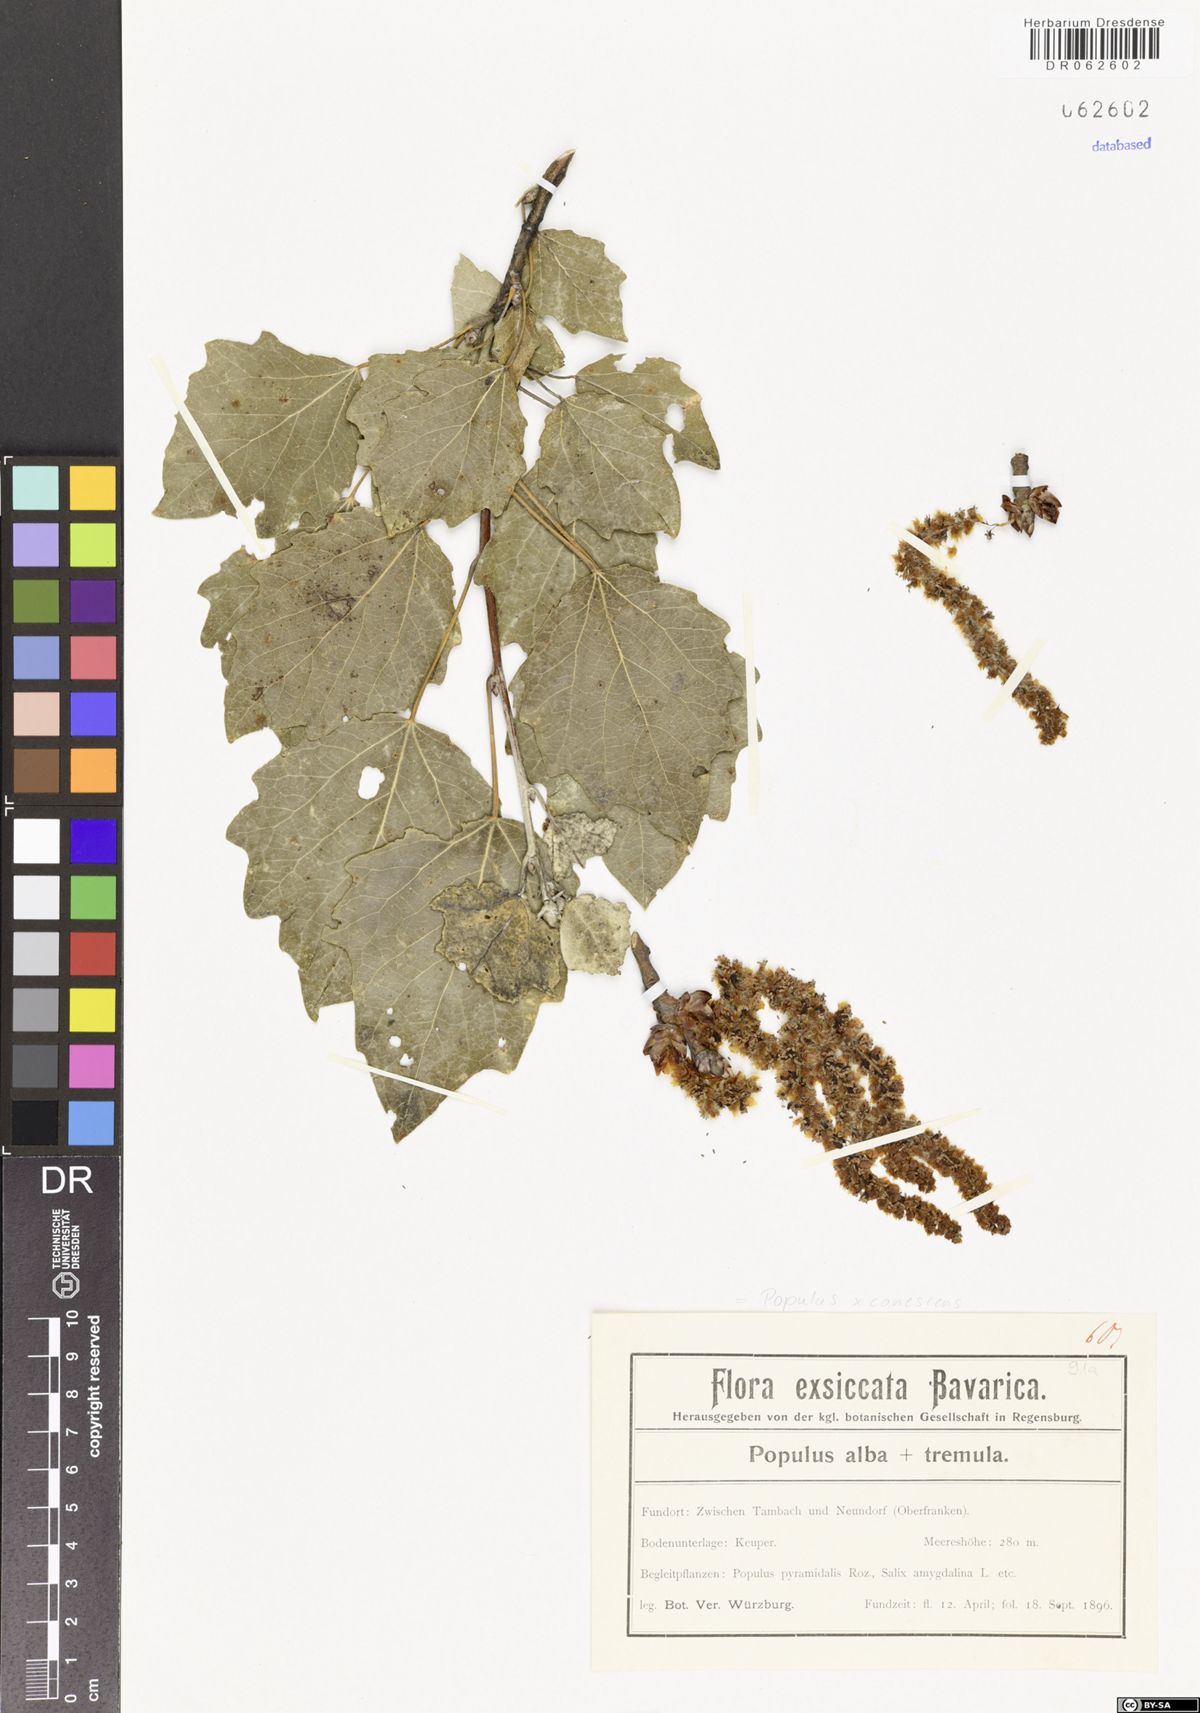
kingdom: Plantae
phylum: Tracheophyta
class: Magnoliopsida
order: Malpighiales
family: Salicaceae
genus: Populus
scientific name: Populus canescens
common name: Gray poplar
